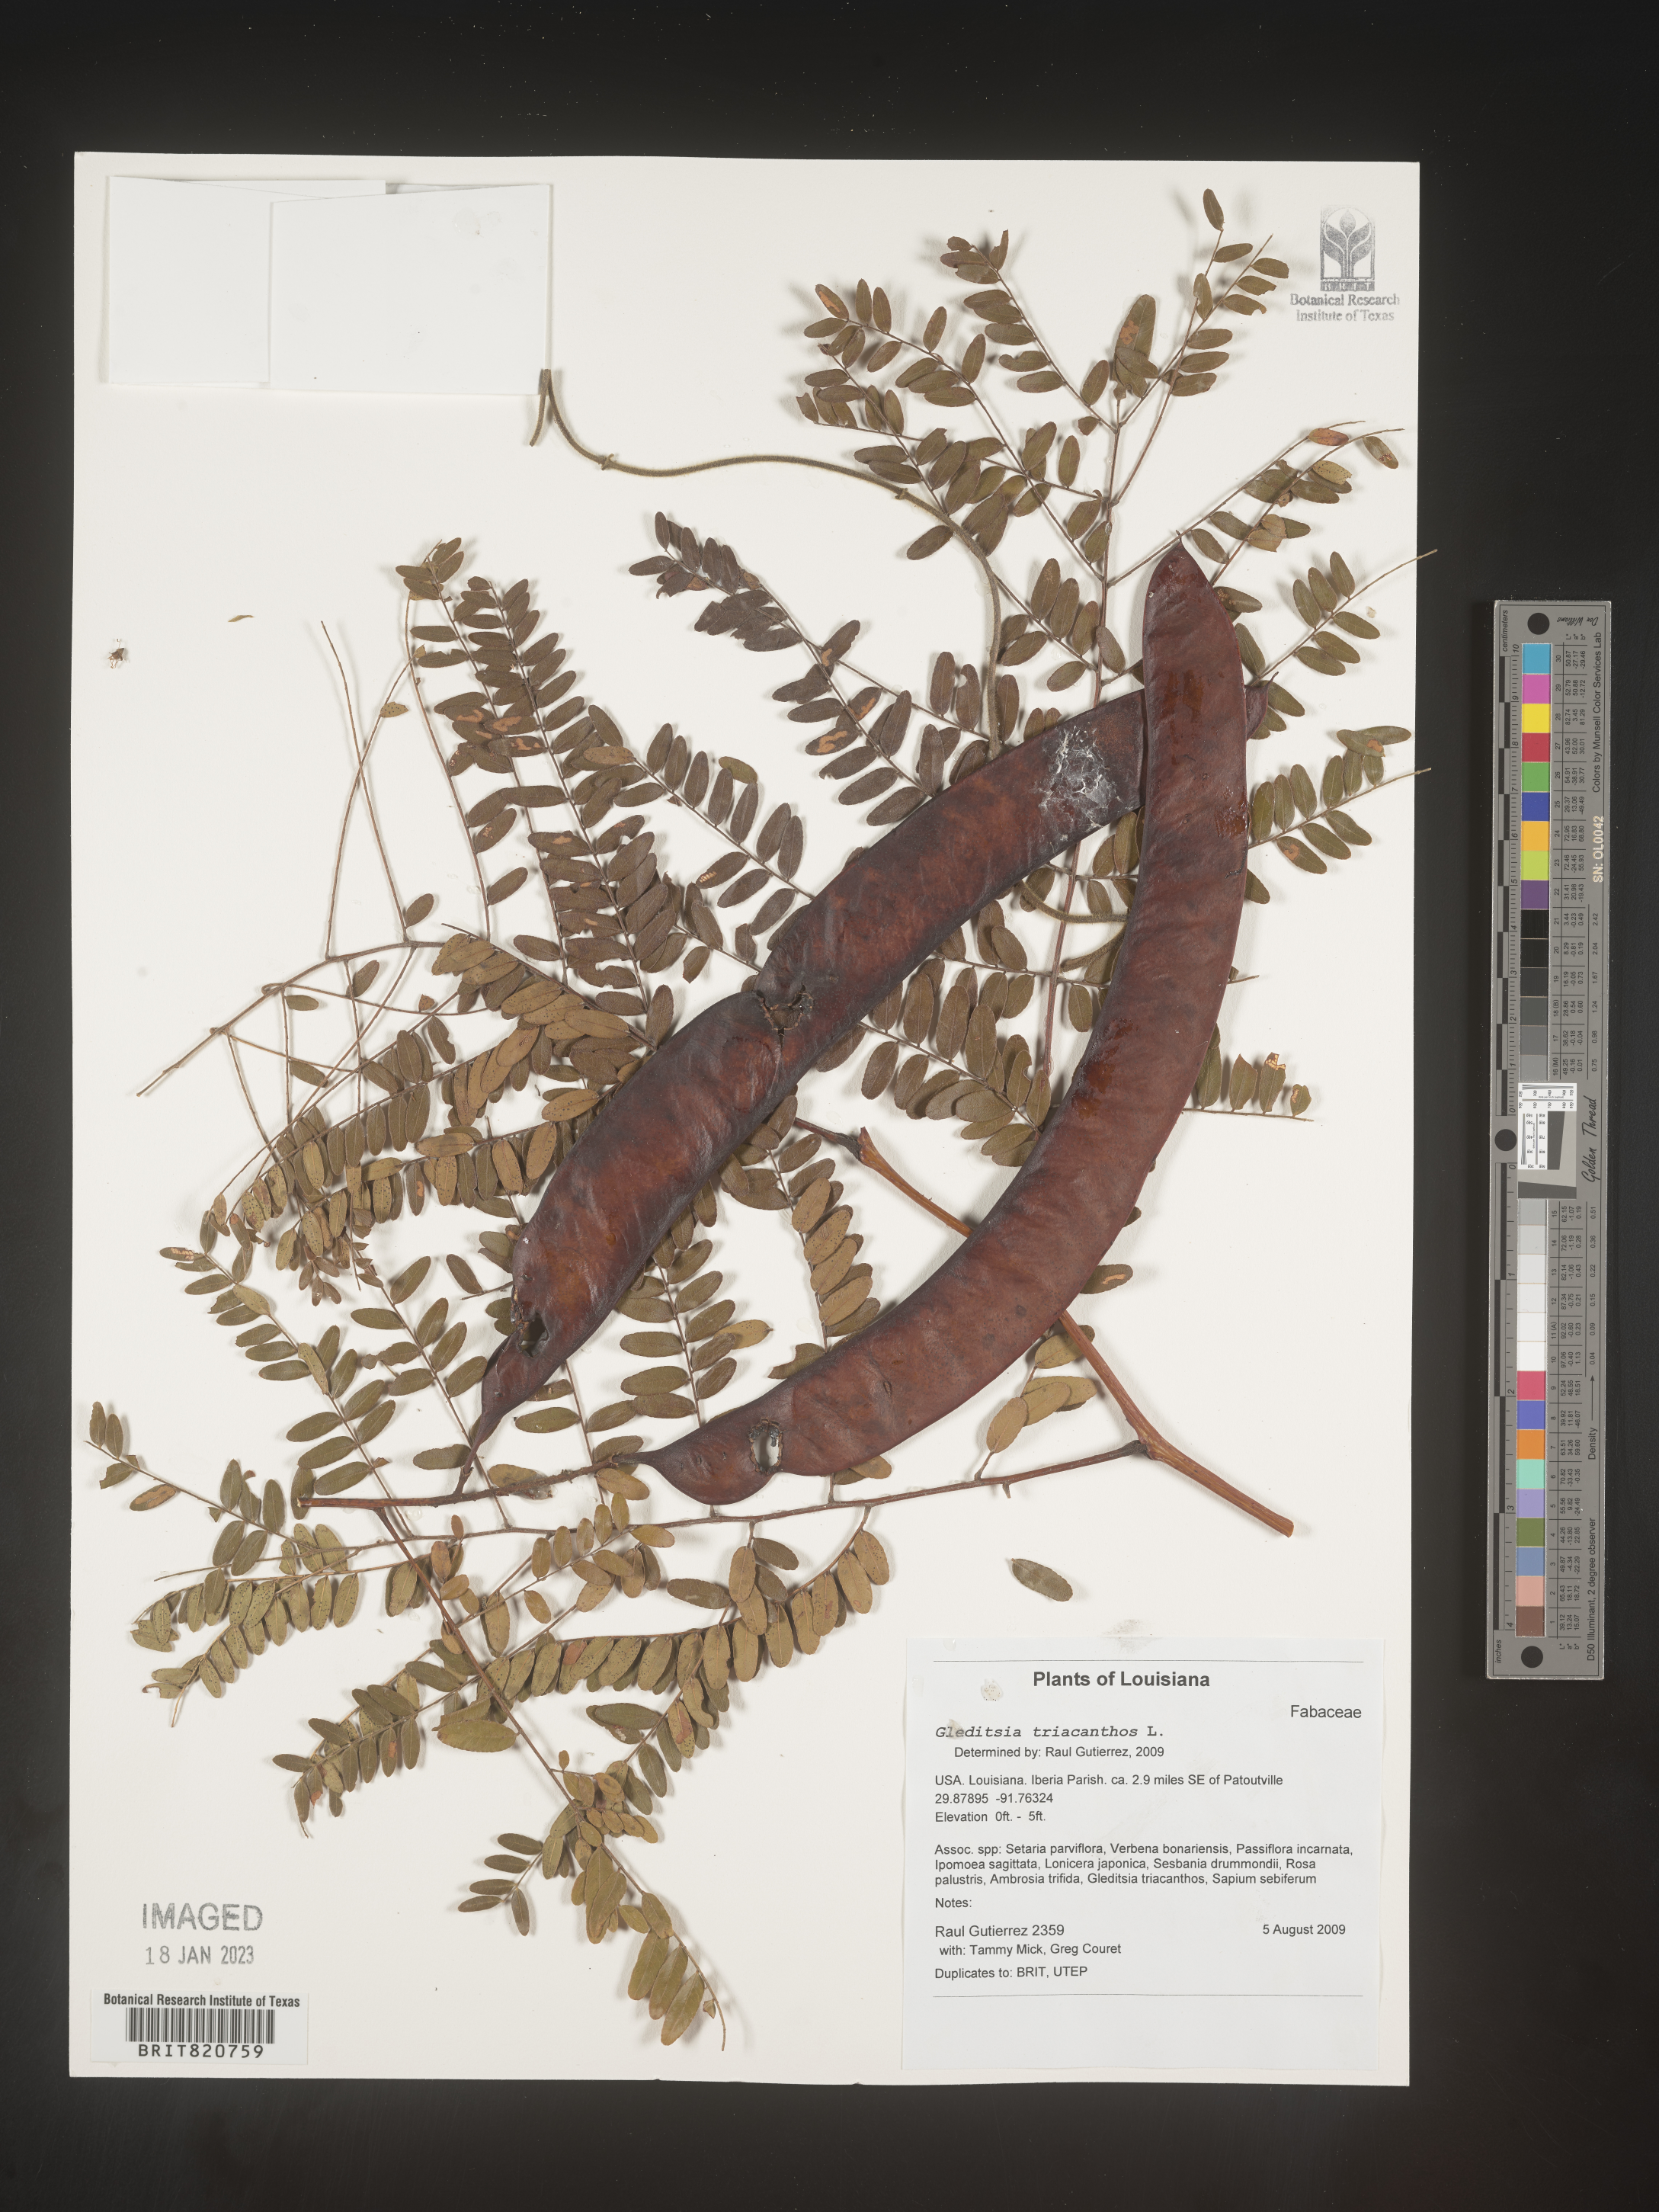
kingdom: Plantae
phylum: Tracheophyta
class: Magnoliopsida
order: Fabales
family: Fabaceae
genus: Gleditsia
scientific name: Gleditsia triacanthos
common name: Common honeylocust
